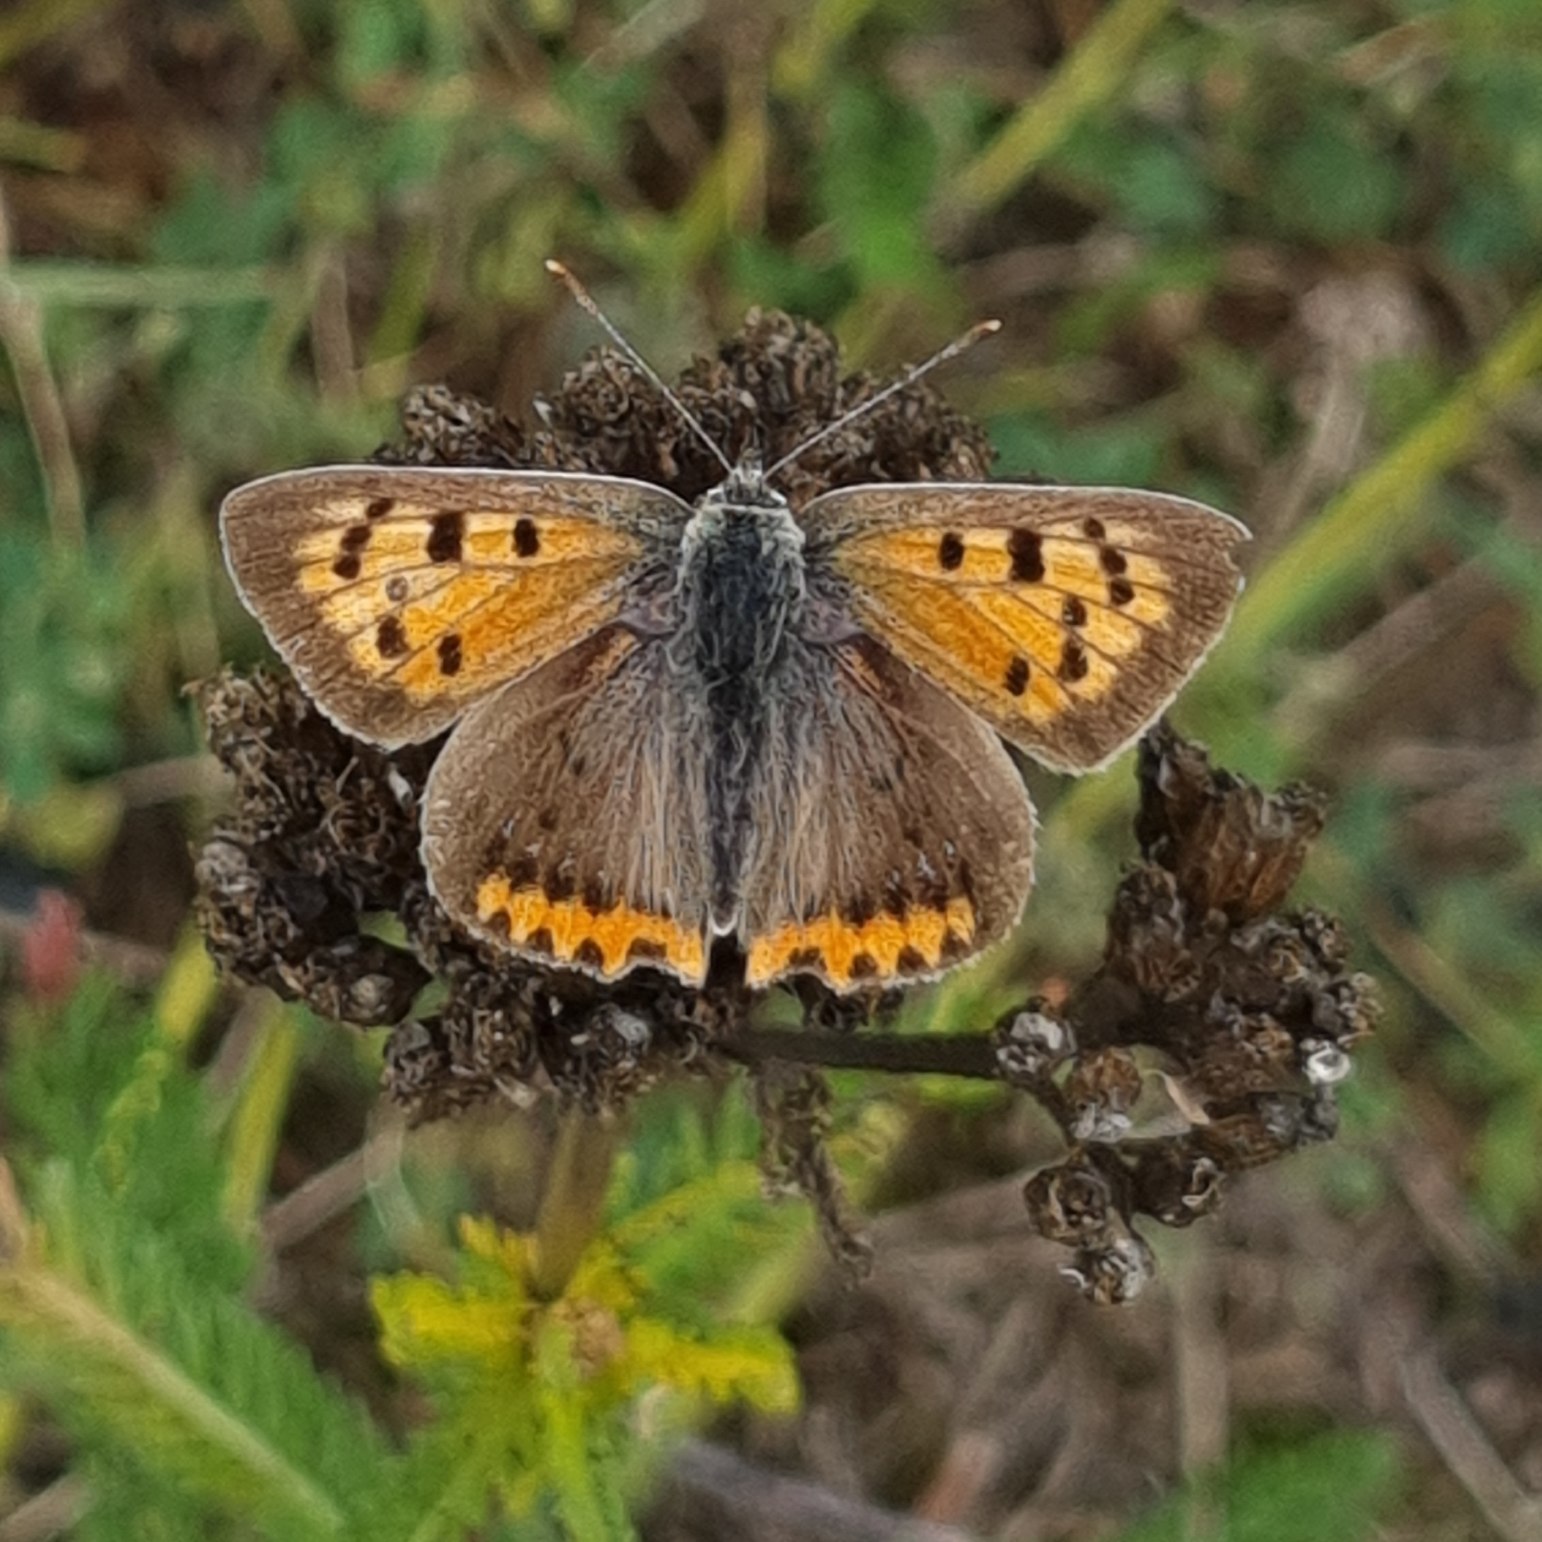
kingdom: Animalia
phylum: Arthropoda
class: Insecta
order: Lepidoptera
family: Lycaenidae
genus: Lycaena
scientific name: Lycaena phlaeas
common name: Lille ildfugl
